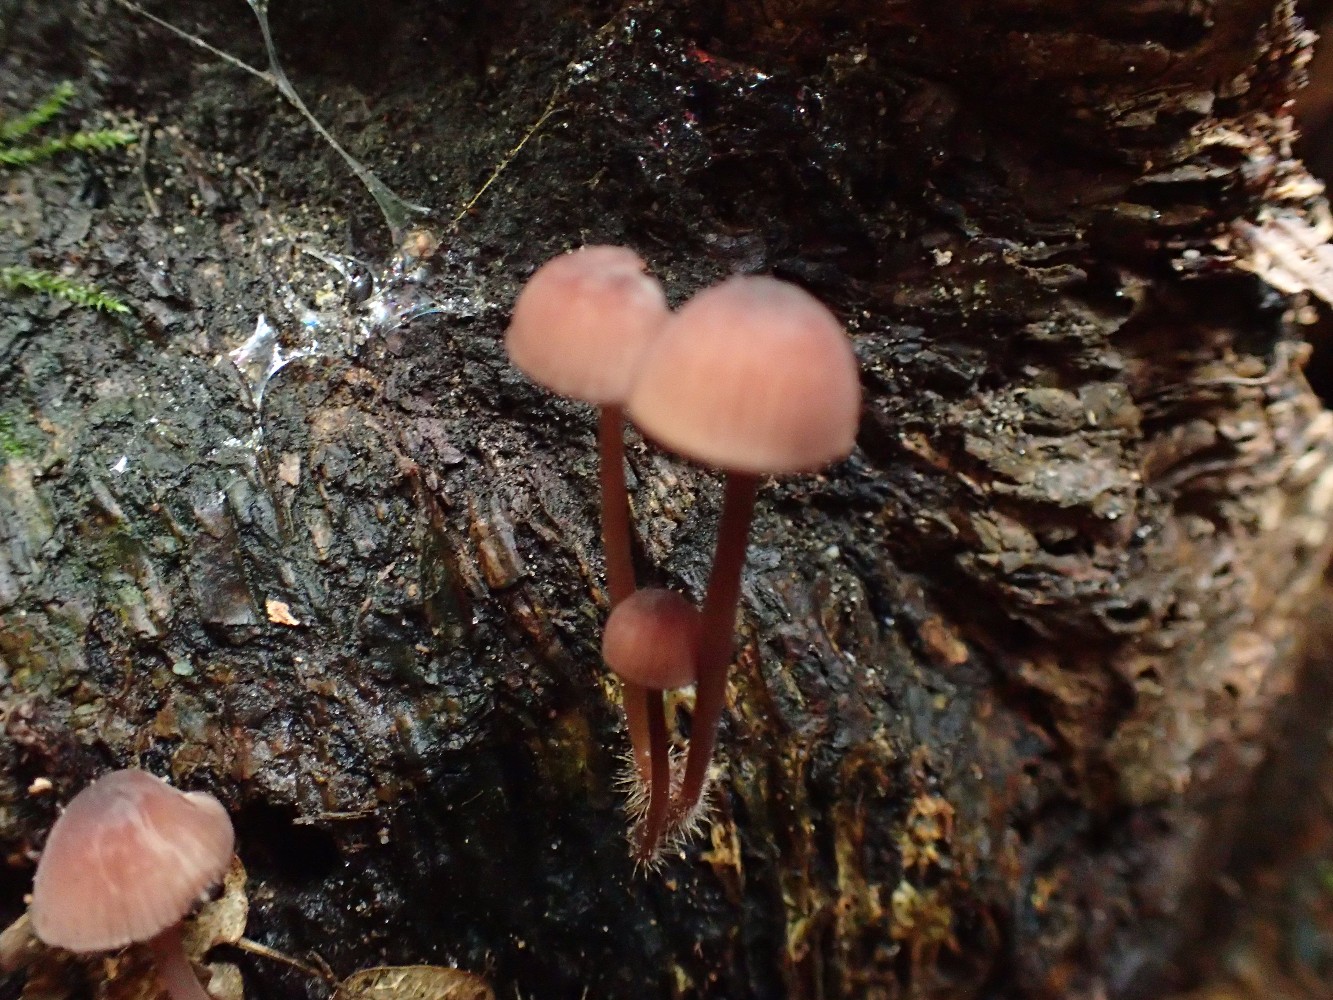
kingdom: Fungi
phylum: Basidiomycota
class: Agaricomycetes
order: Agaricales
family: Mycenaceae
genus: Mycena
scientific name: Mycena sanguinolenta
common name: rødmælket huesvamp
